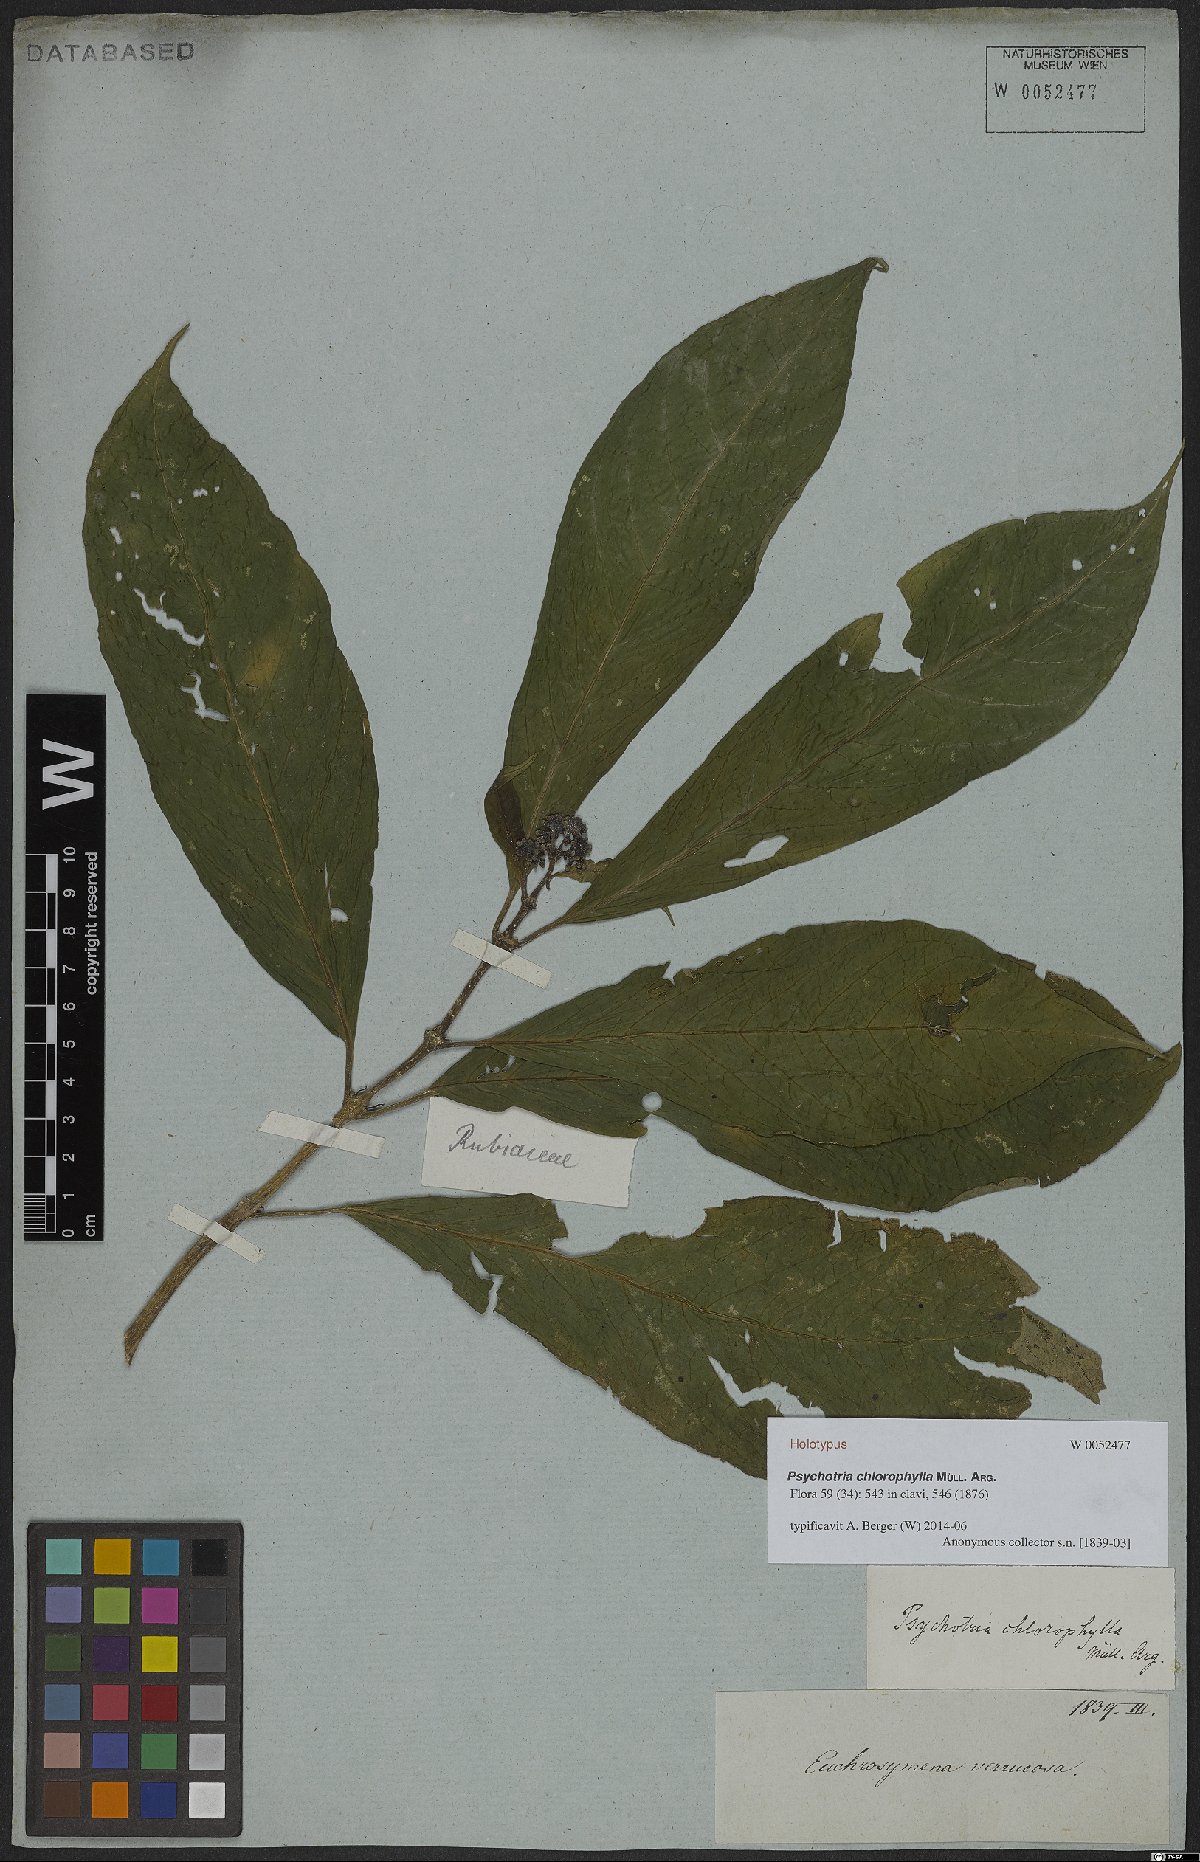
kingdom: Plantae
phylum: Tracheophyta
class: Magnoliopsida
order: Gentianales
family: Rubiaceae
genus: Psychotria
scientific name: Psychotria chlorophylla
